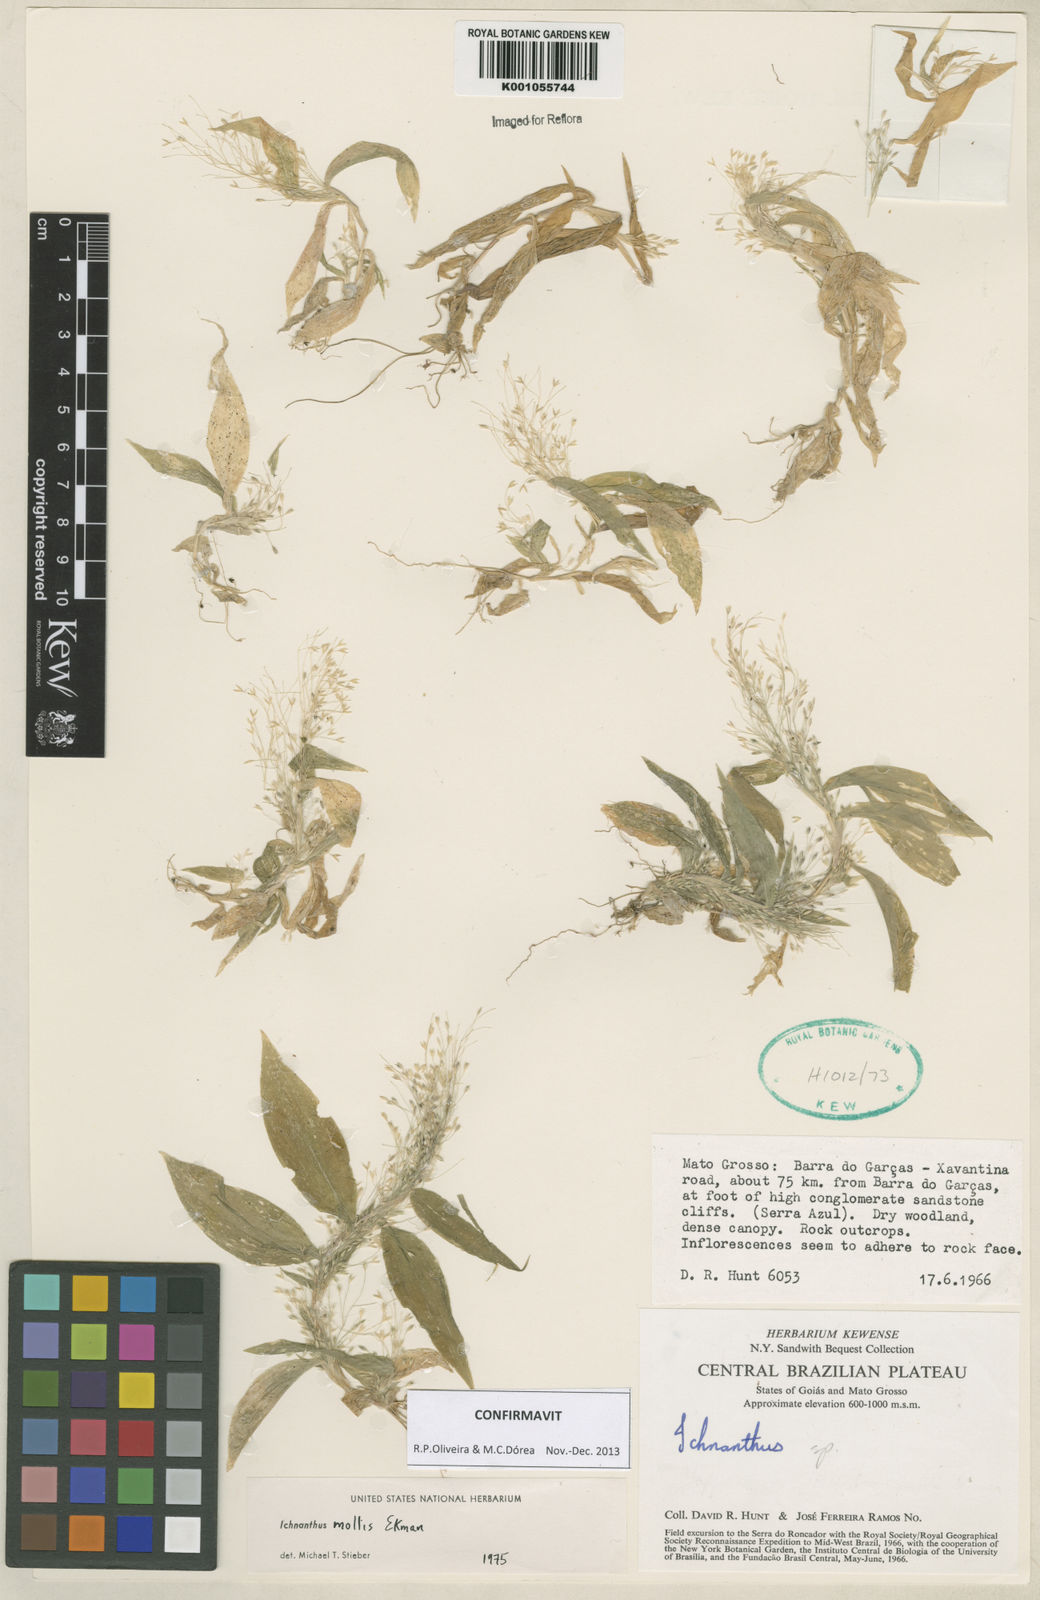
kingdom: Plantae
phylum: Tracheophyta
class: Liliopsida
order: Poales
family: Poaceae
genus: Ichnanthus
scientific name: Ichnanthus mollis
